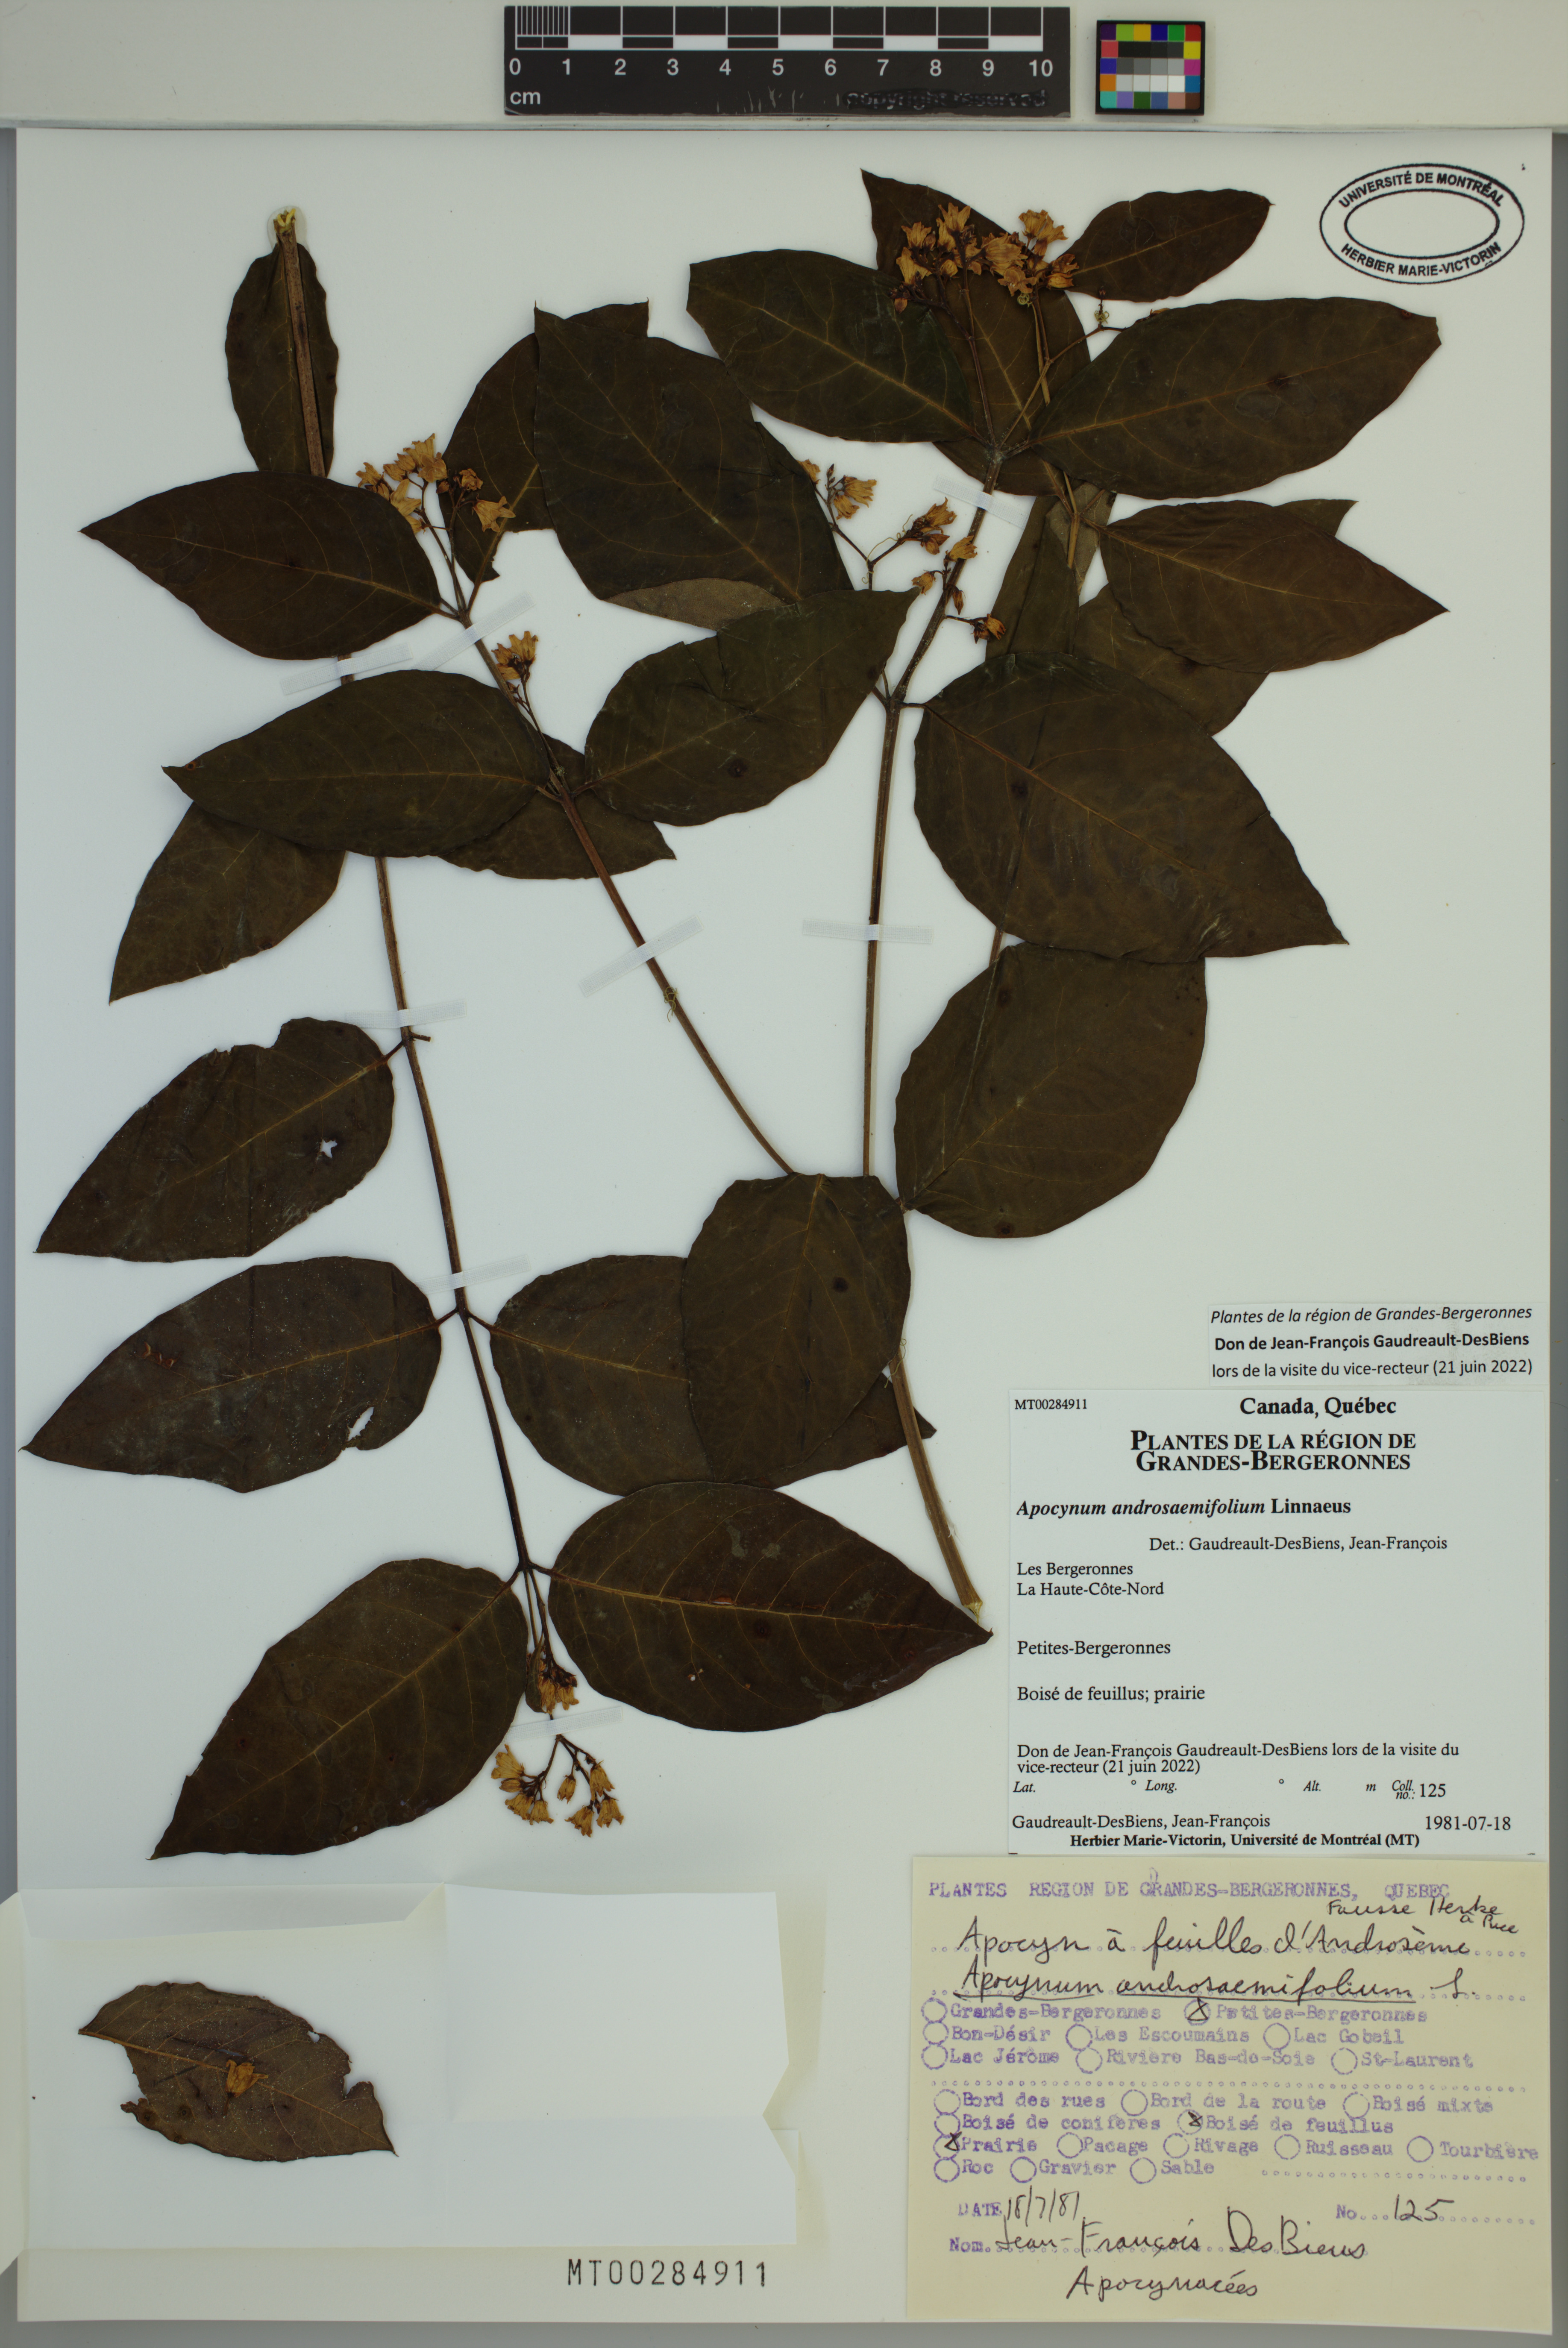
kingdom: Plantae
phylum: Tracheophyta
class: Magnoliopsida
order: Gentianales
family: Apocynaceae
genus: Apocynum
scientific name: Apocynum androsaemifolium
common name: Spreading dogbane
